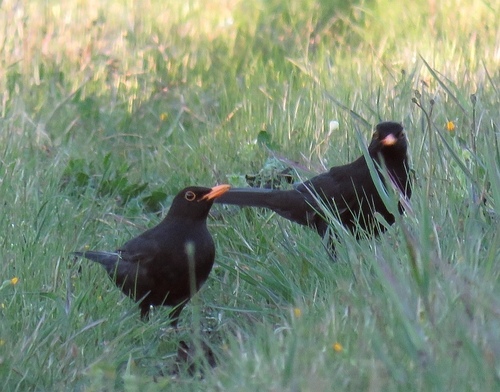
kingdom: Animalia
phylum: Chordata
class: Aves
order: Passeriformes
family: Turdidae
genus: Turdus
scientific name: Turdus merula
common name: Common blackbird
